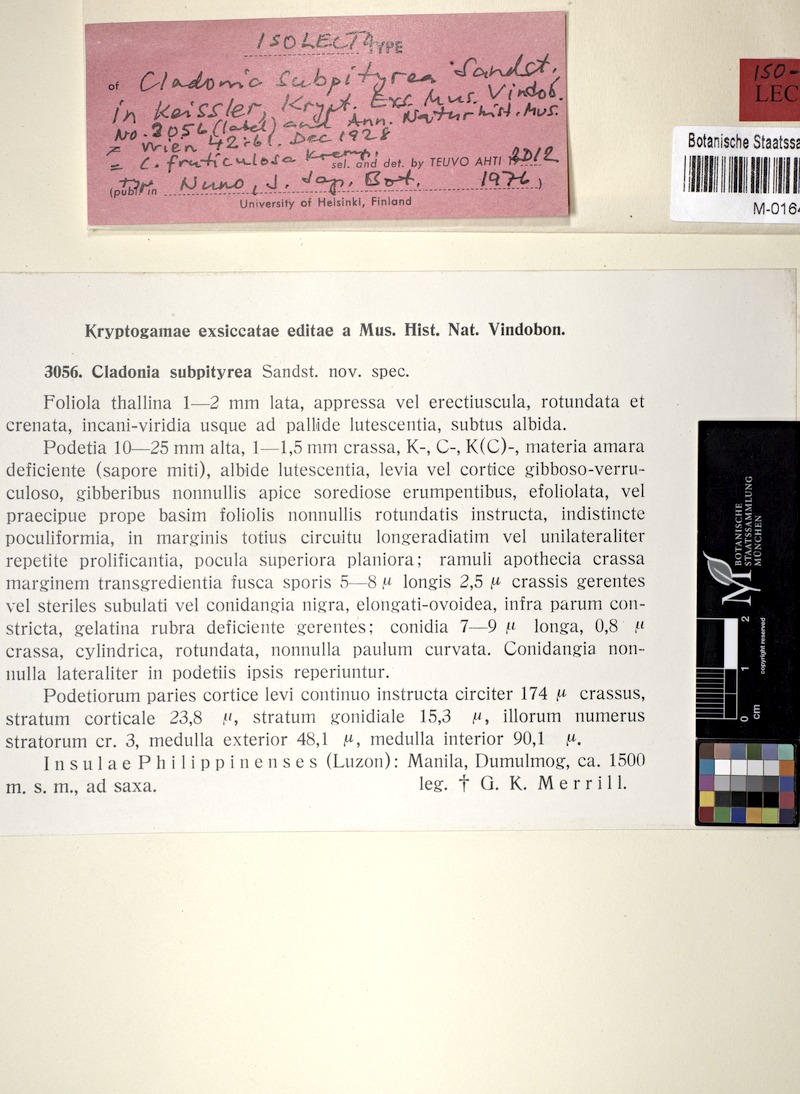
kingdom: Fungi
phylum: Ascomycota
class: Lecanoromycetes
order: Lecanorales
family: Cladoniaceae
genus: Cladonia
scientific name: Cladonia subpityrea
